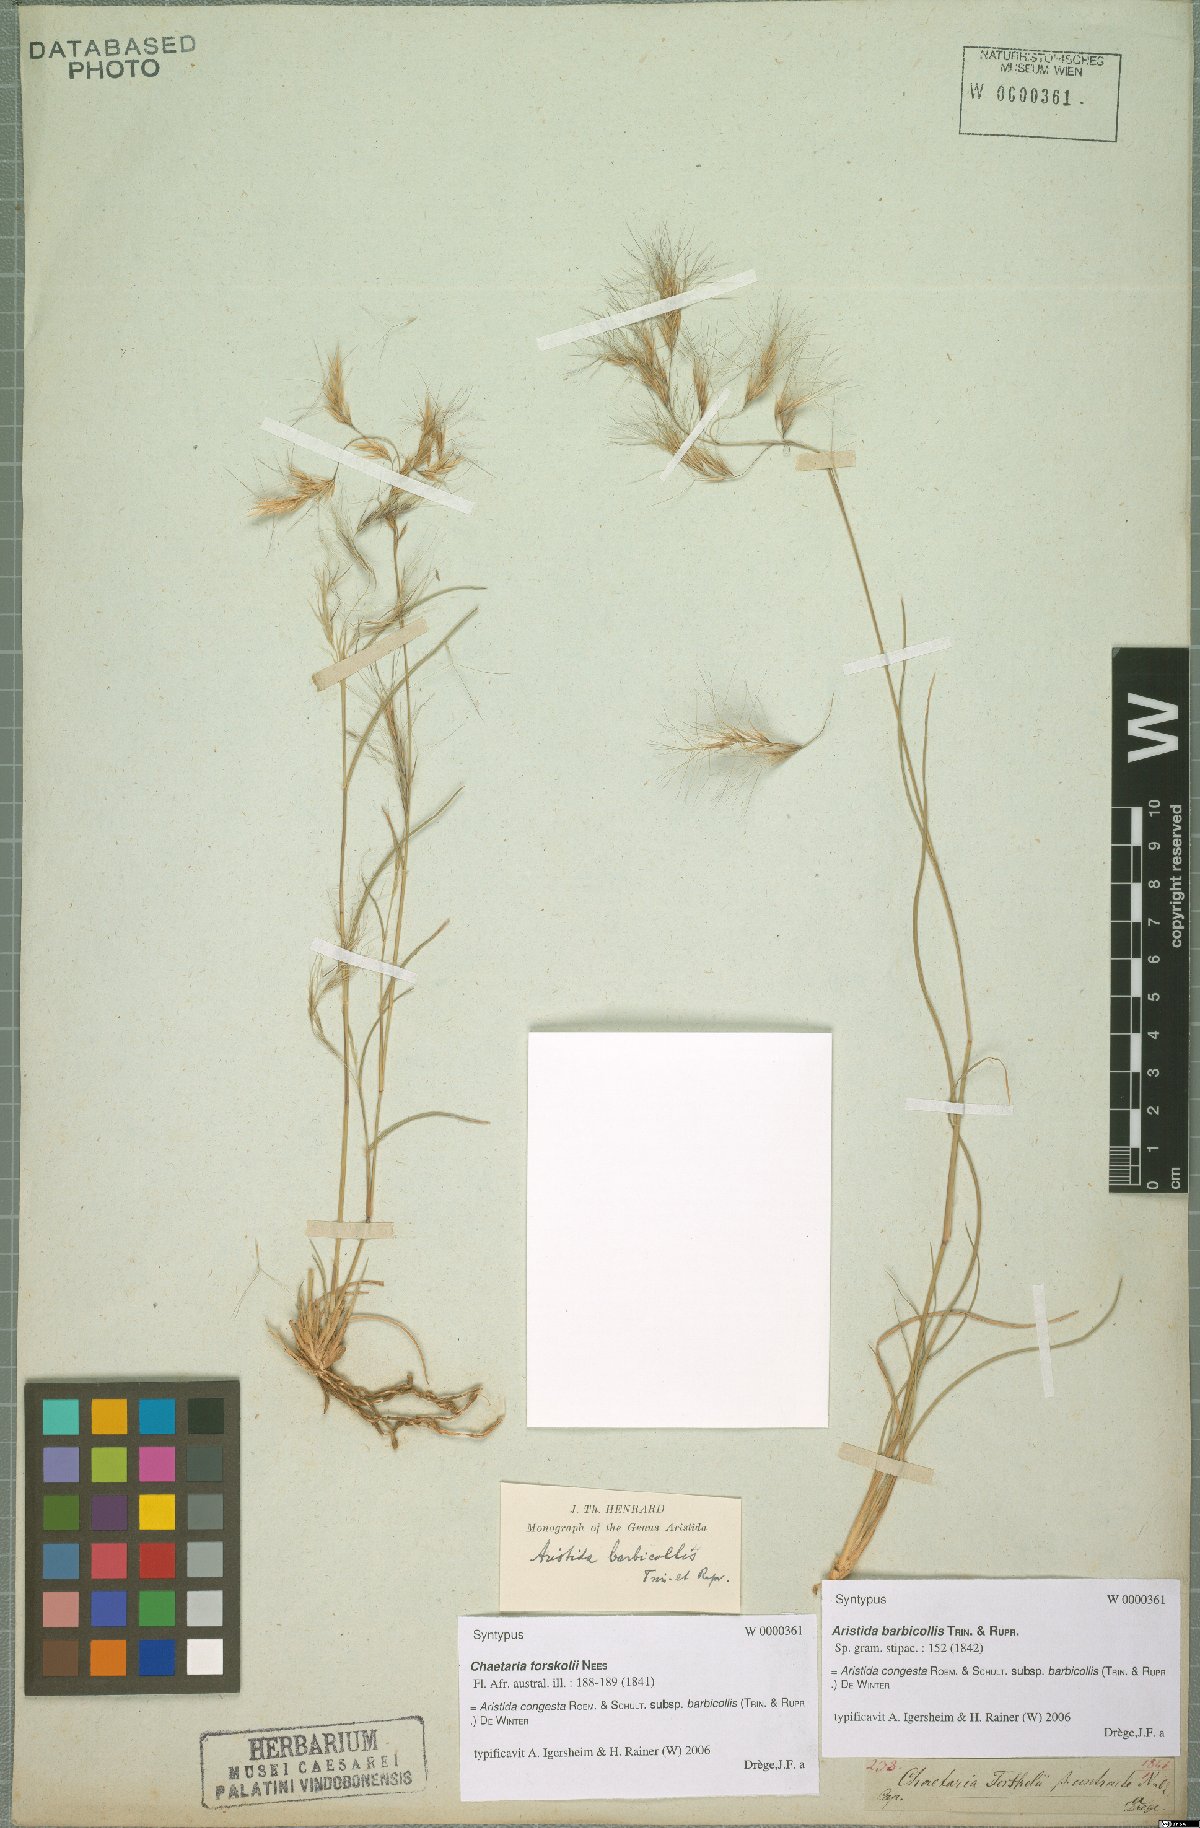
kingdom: Plantae
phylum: Tracheophyta
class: Liliopsida
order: Poales
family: Poaceae
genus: Aristida
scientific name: Aristida barbicollis
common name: Spreading prickle grass
